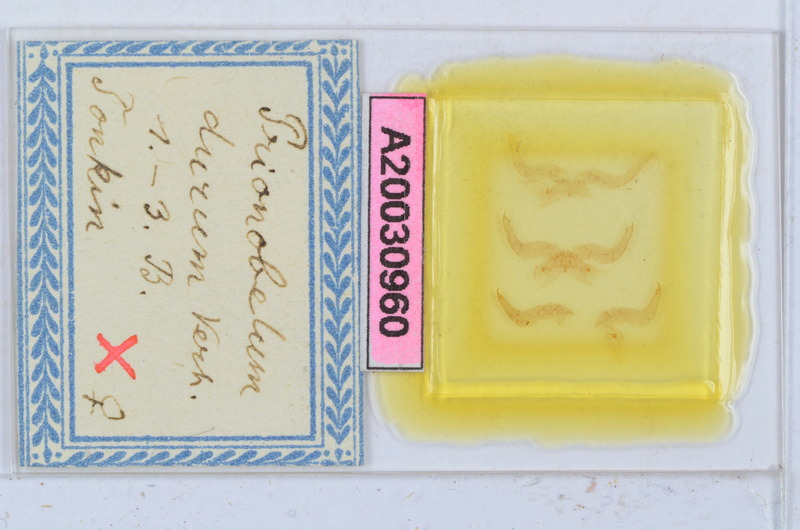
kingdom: Animalia
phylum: Arthropoda
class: Diplopoda
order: Sphaerotheriida
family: Zephroniidae
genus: Prionobelum
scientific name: Prionobelum durum
